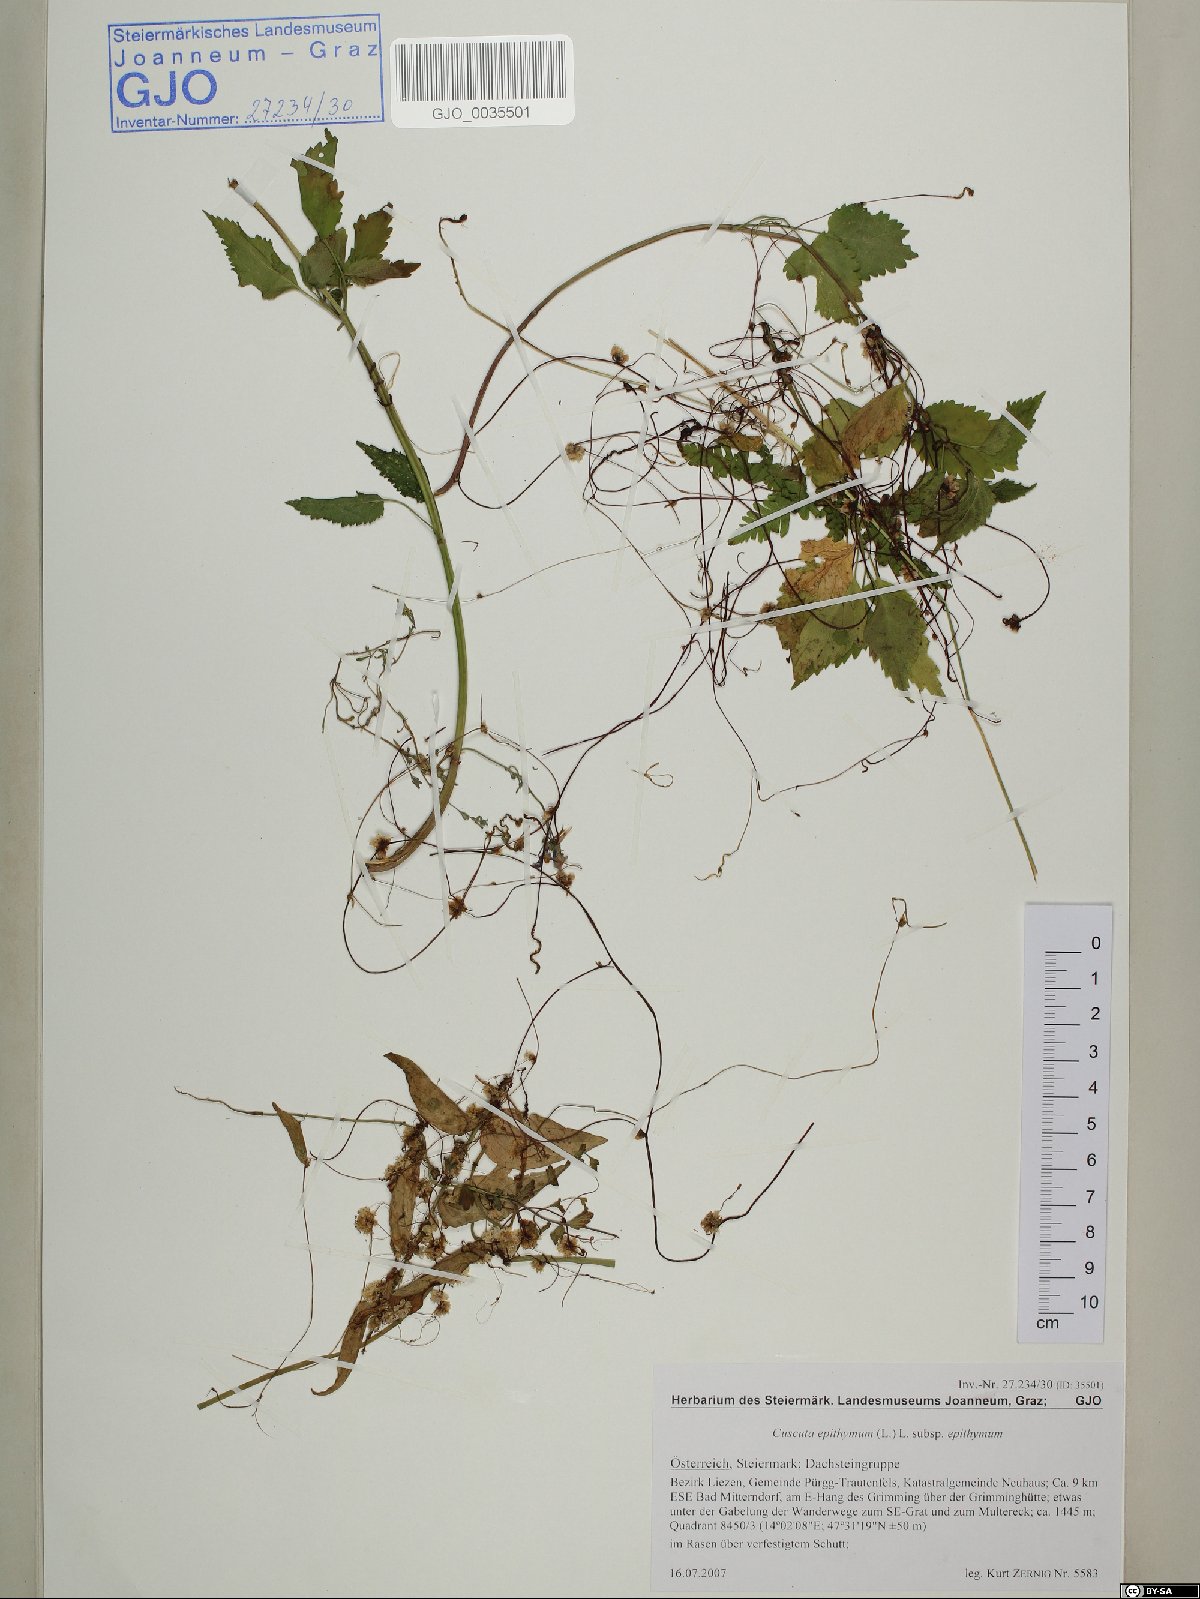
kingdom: Plantae
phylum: Tracheophyta
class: Magnoliopsida
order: Solanales
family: Convolvulaceae
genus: Cuscuta
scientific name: Cuscuta epithymum
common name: Clover dodder
